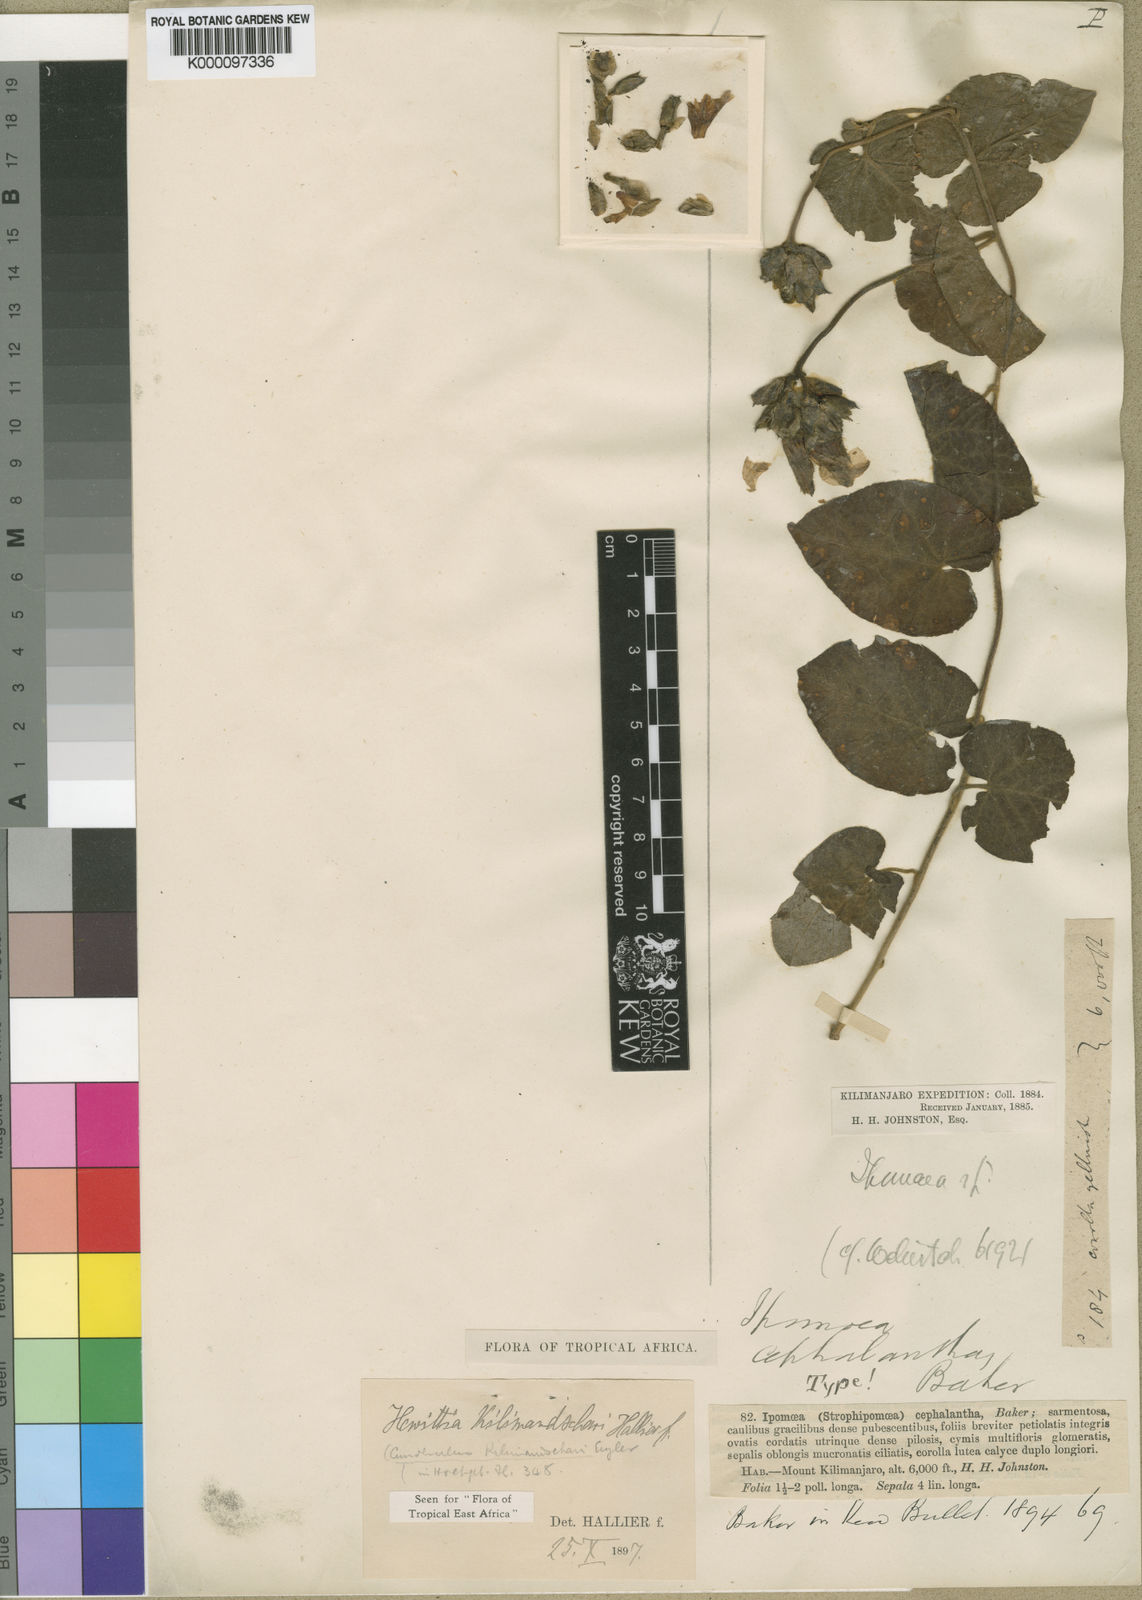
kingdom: Plantae
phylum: Tracheophyta
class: Magnoliopsida
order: Solanales
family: Convolvulaceae
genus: Convolvulus
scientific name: Convolvulus kilimandschari
